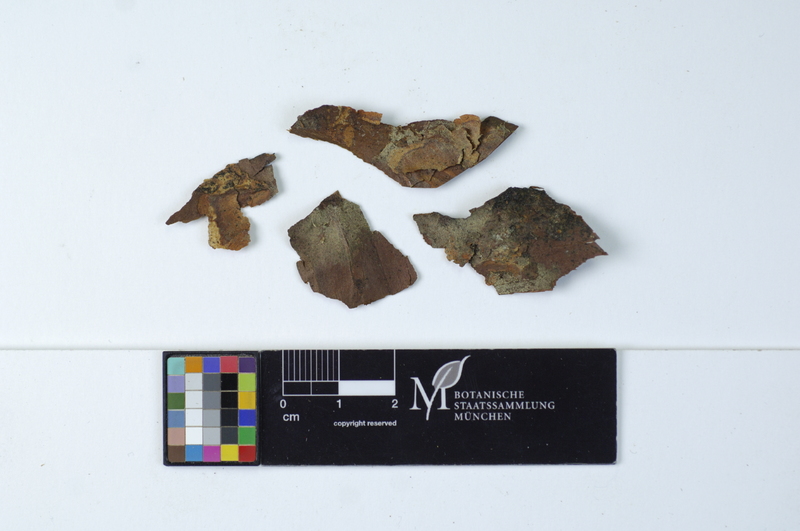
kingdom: Fungi
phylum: Basidiomycota
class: Agaricomycetes
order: Cantharellales
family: Botryobasidiaceae
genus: Botryobasidium
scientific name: Botryobasidium vagum
